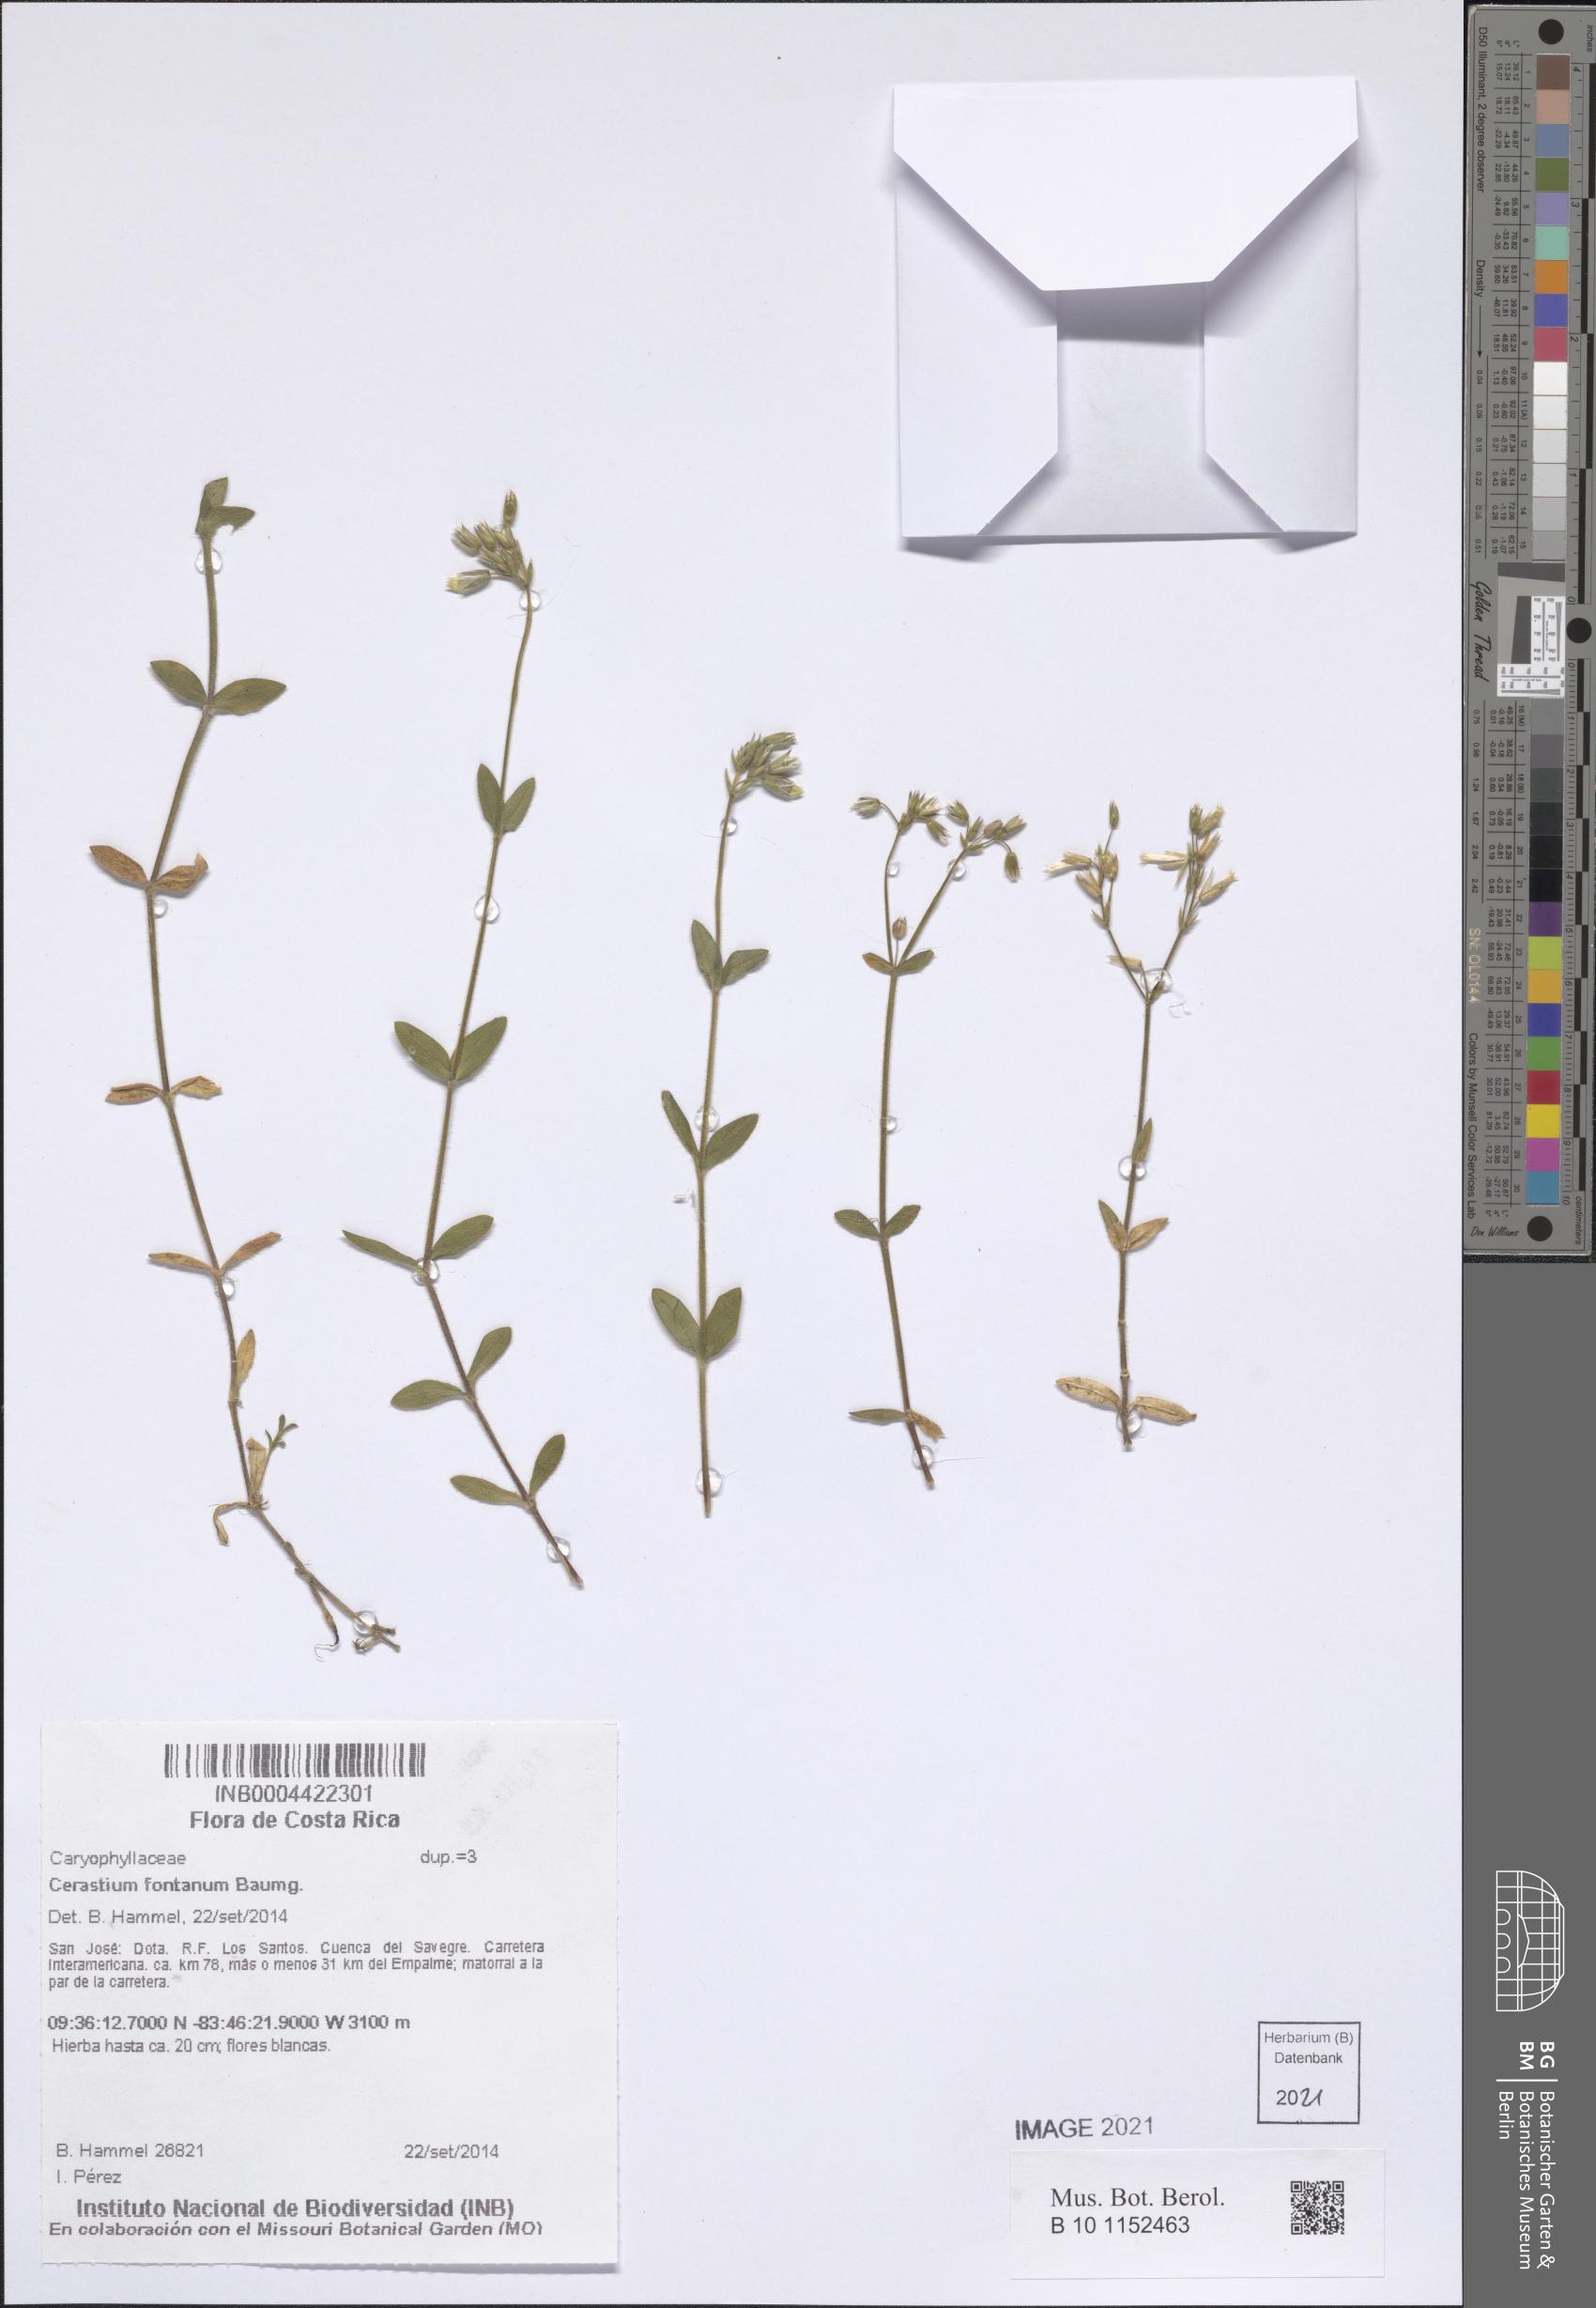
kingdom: Plantae
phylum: Tracheophyta
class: Magnoliopsida
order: Caryophyllales
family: Caryophyllaceae
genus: Cerastium
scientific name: Cerastium fontanum
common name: Common mouse-ear
